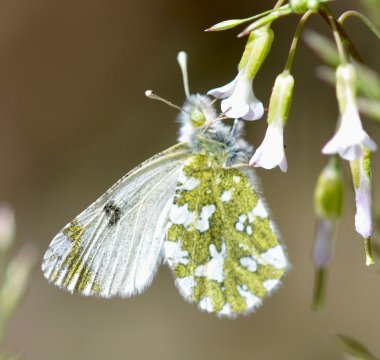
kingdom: Animalia
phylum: Arthropoda
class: Insecta
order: Lepidoptera
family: Pieridae
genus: Euchloe
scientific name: Euchloe ausonides
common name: Large Marble
